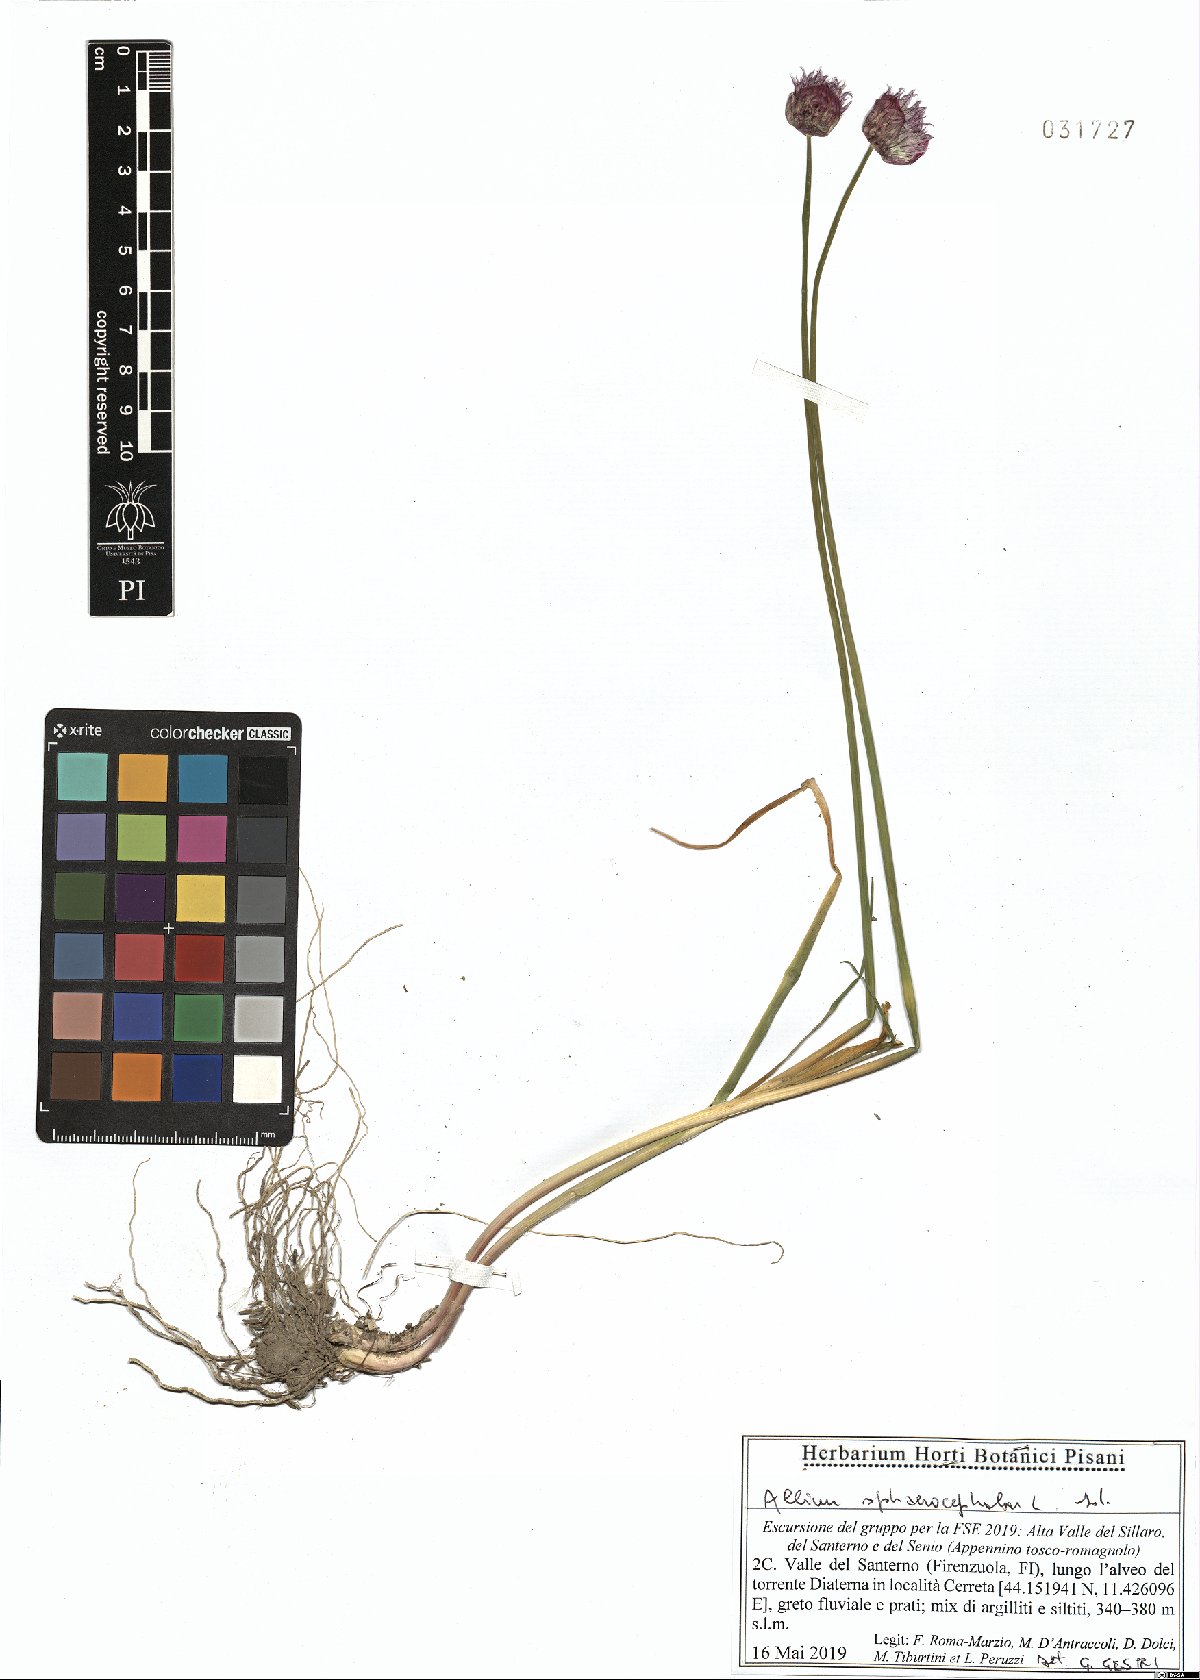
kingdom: Plantae
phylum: Tracheophyta
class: Liliopsida
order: Asparagales
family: Amaryllidaceae
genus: Allium
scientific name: Allium sphaerocephalon
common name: Round-headed leek
